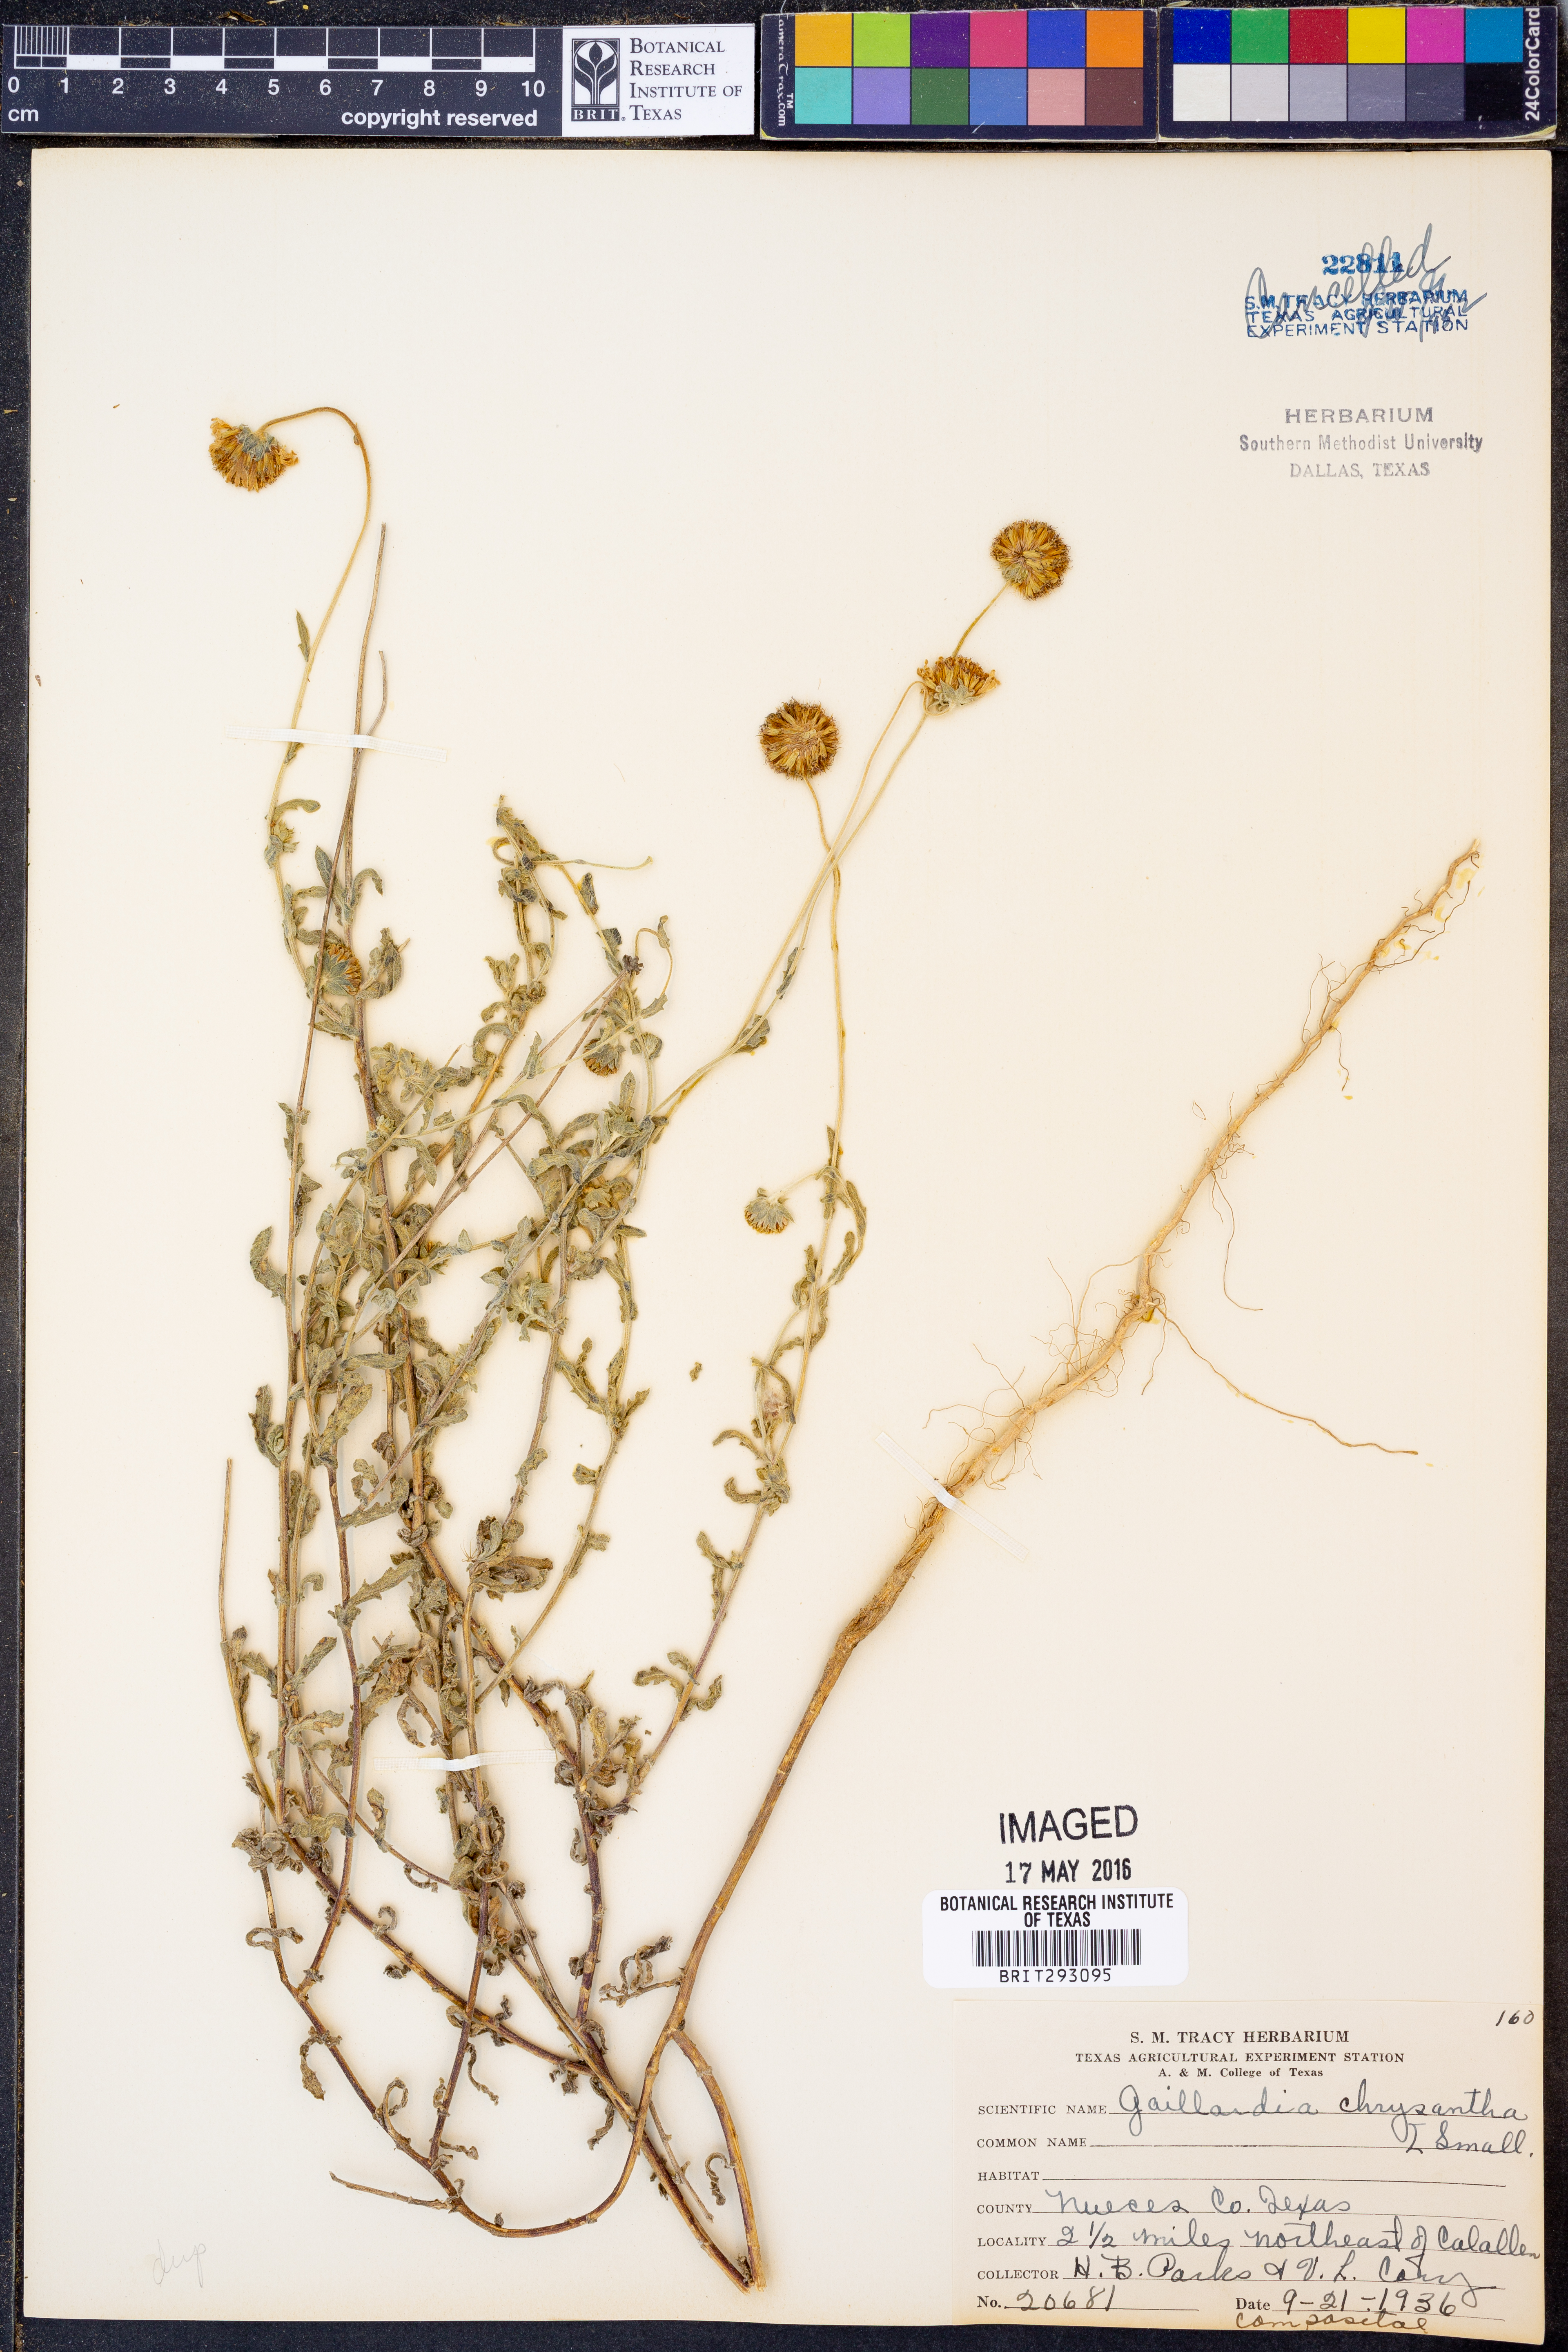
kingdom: Plantae
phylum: Tracheophyta
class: Magnoliopsida
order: Asterales
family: Asteraceae
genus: Gaillardia
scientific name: Gaillardia aestivalis
